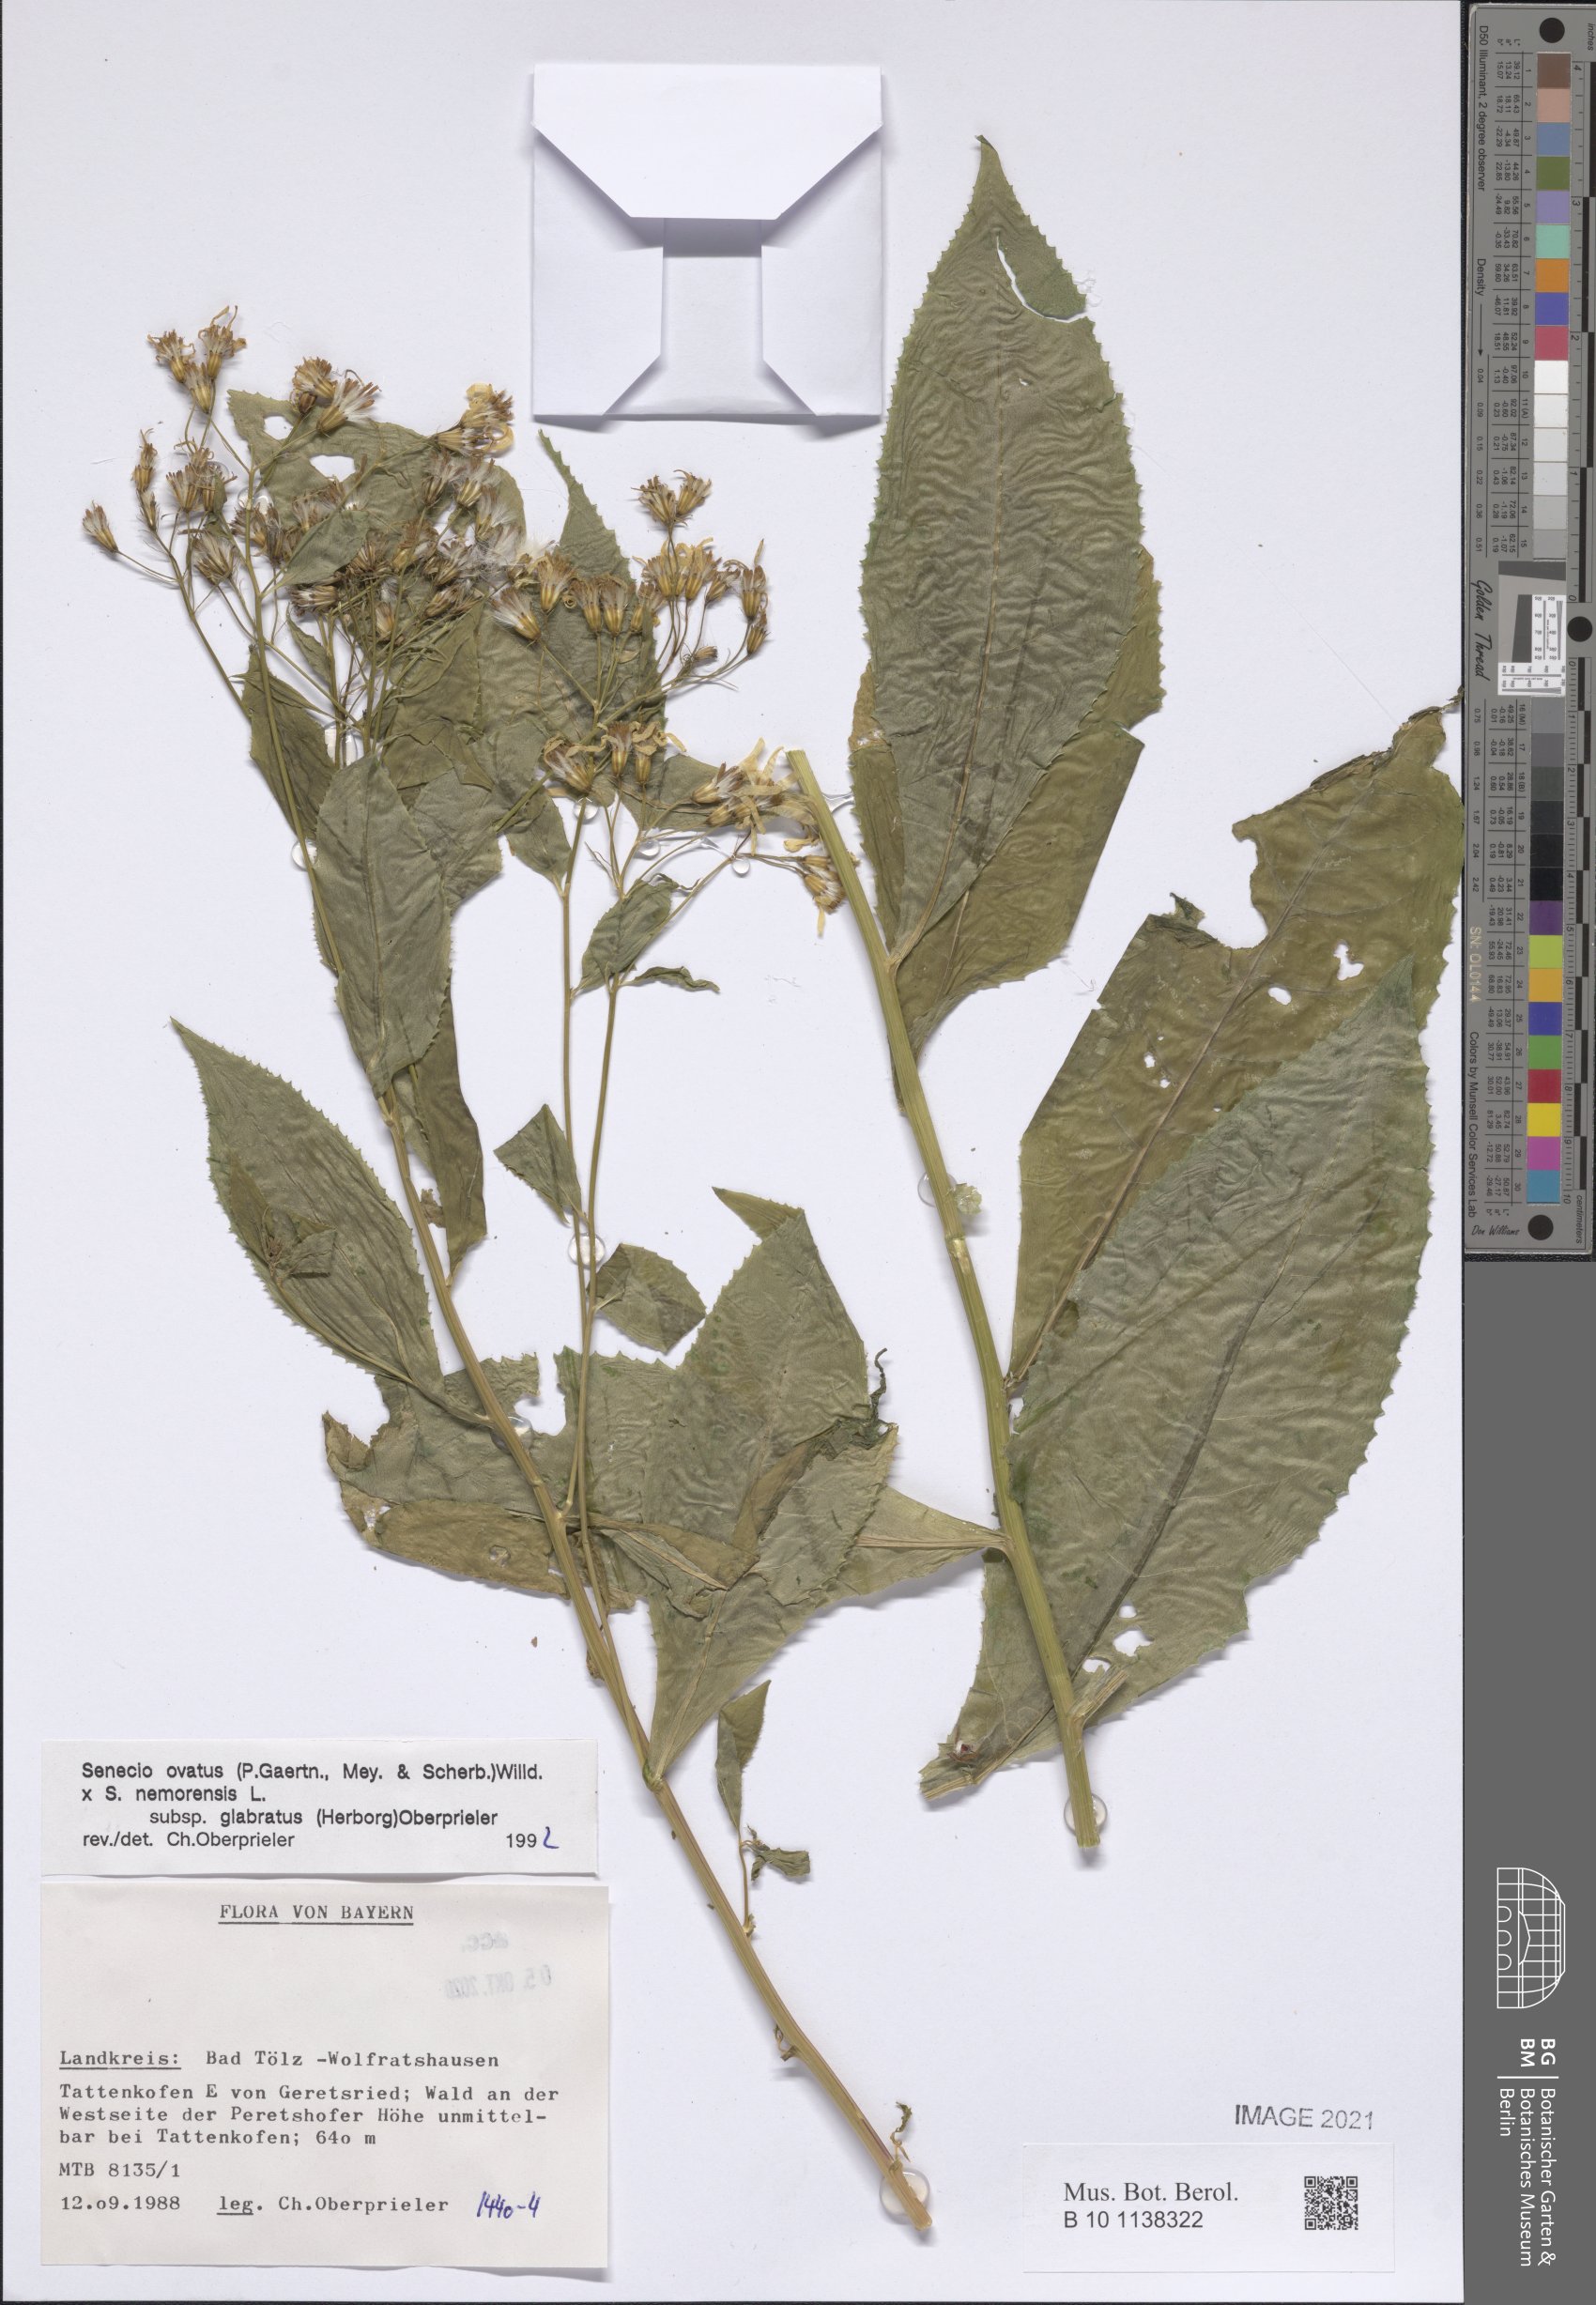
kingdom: Plantae
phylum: Tracheophyta
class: Magnoliopsida
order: Asterales
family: Asteraceae
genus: Senecio
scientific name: Senecio ovatus
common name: Wood ragwort
